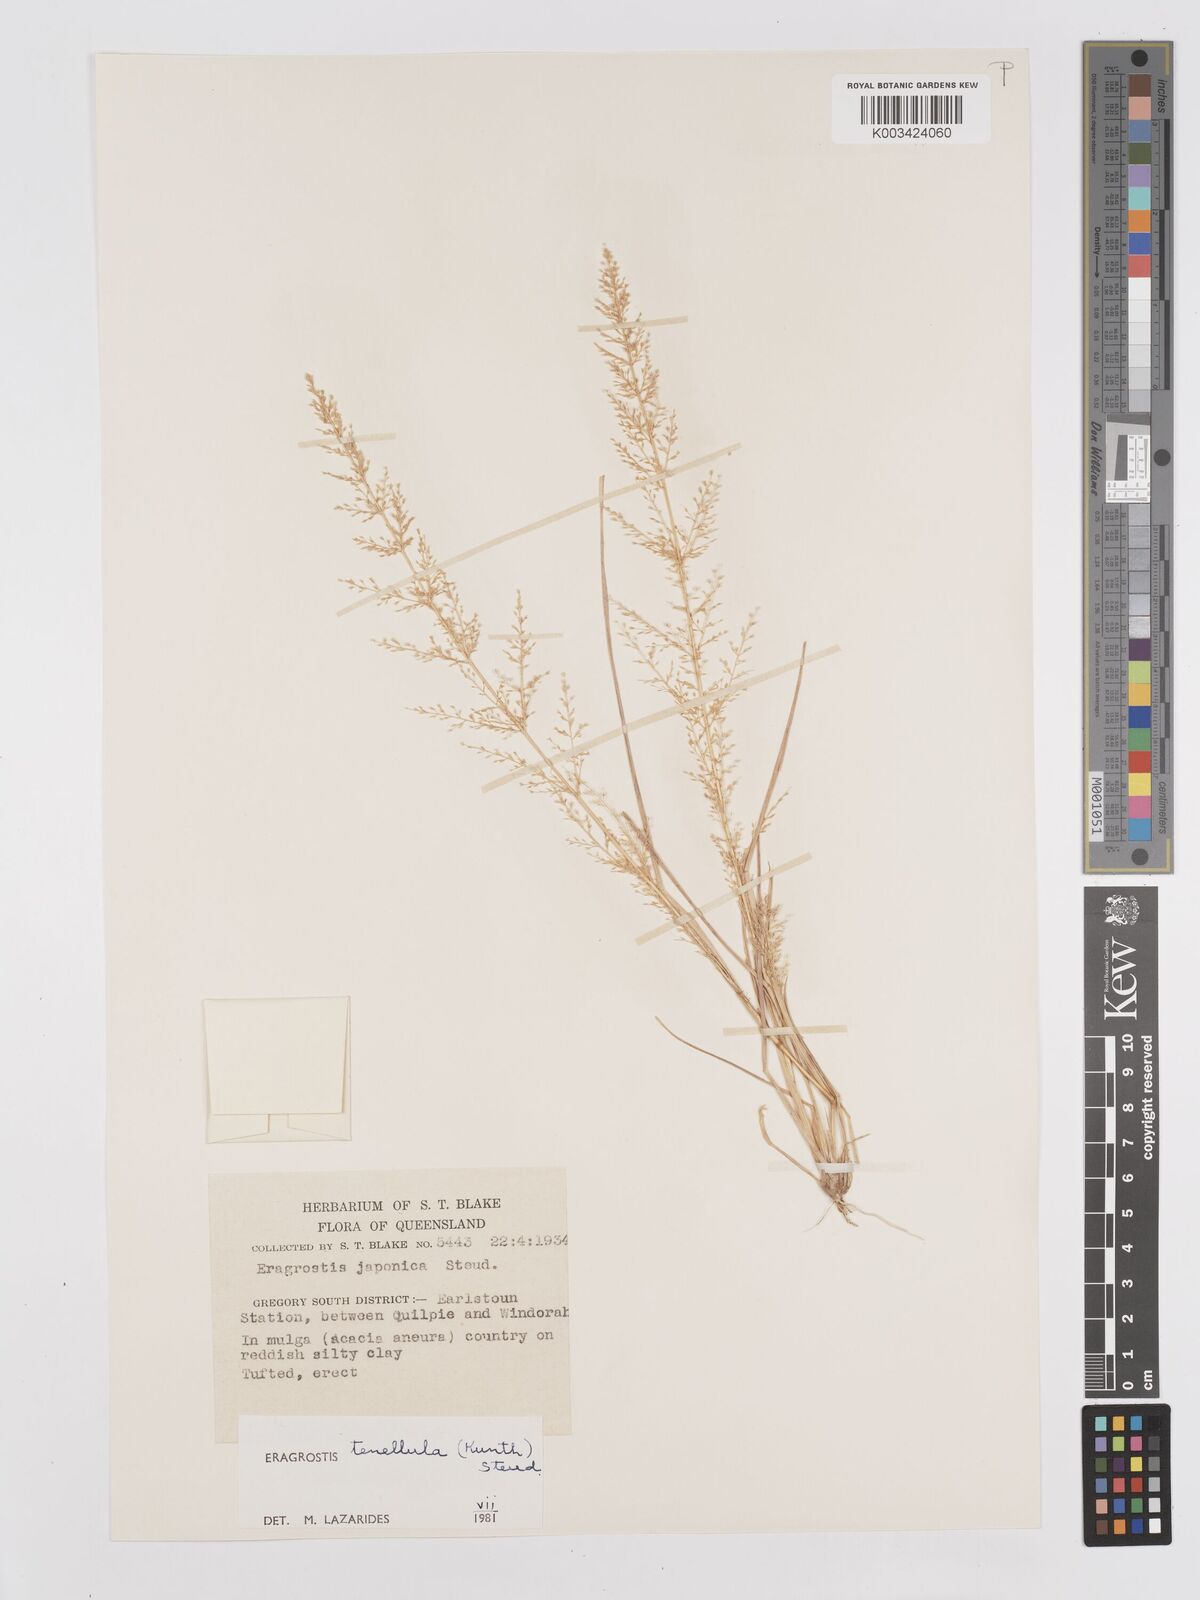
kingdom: Plantae
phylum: Tracheophyta
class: Liliopsida
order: Poales
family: Poaceae
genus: Eragrostis
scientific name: Eragrostis tenellula
